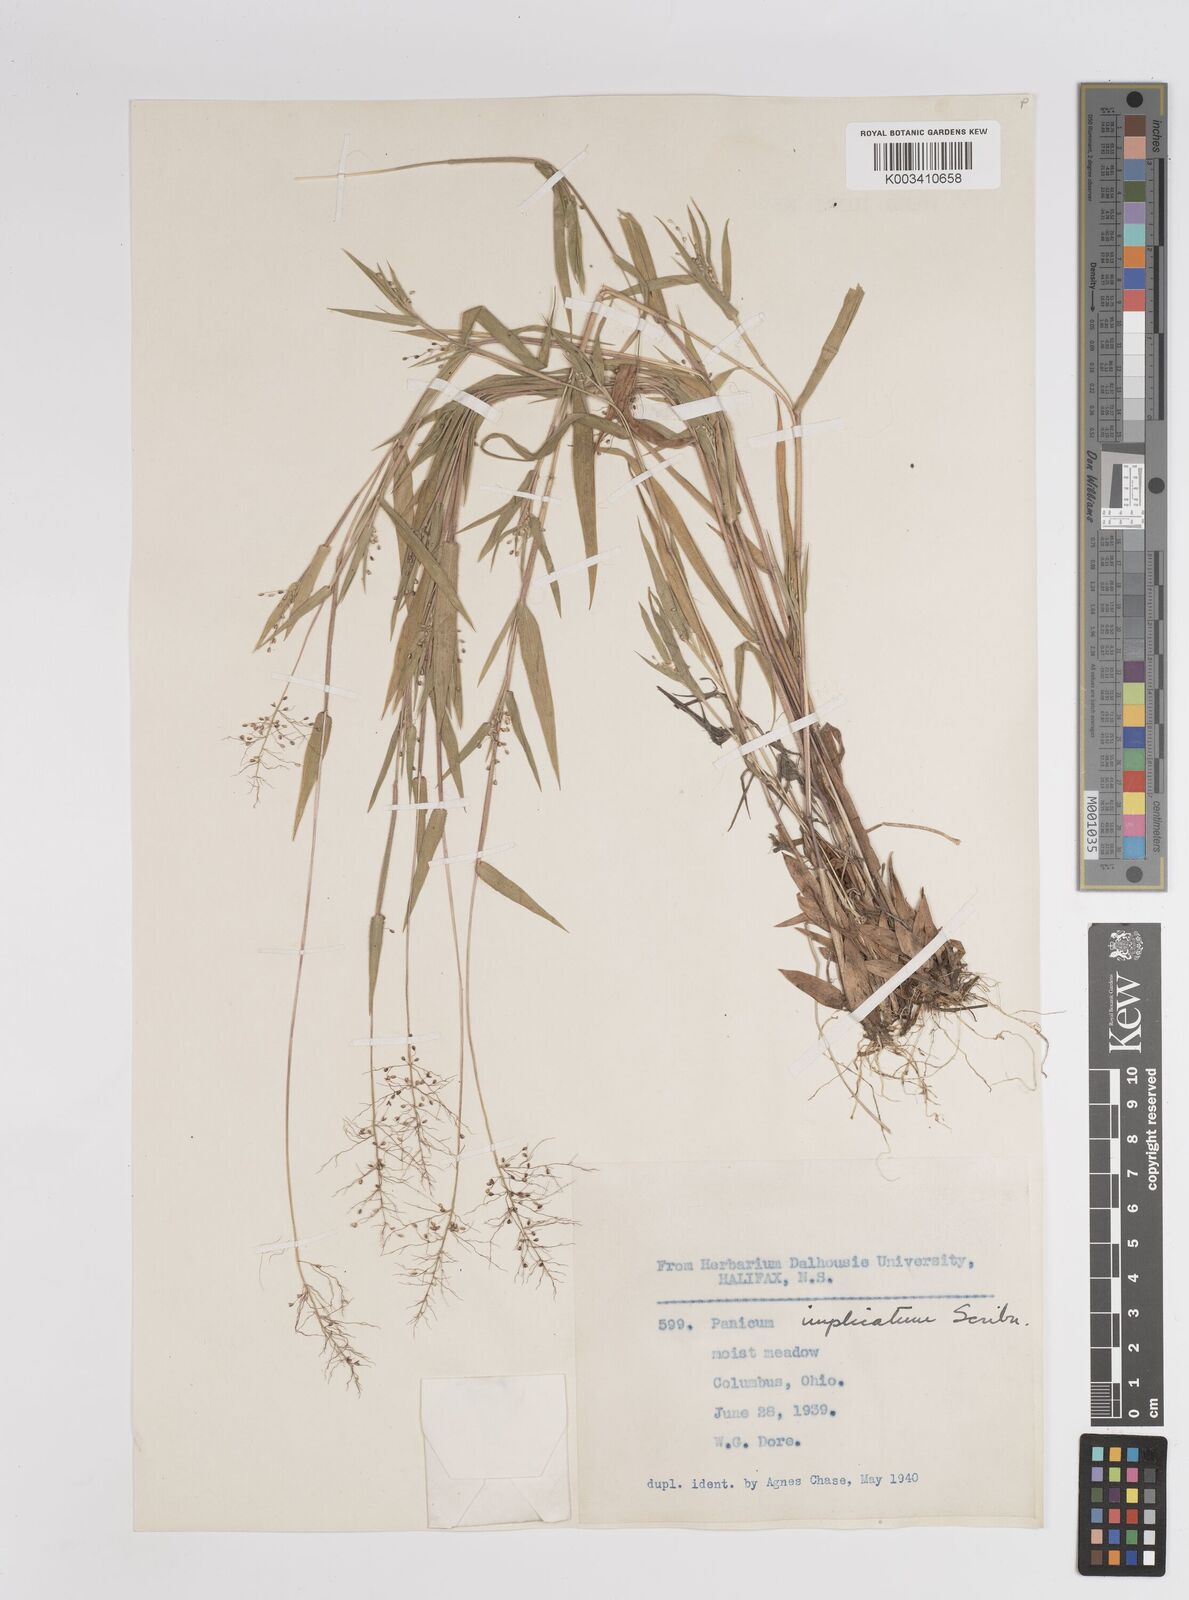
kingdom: Plantae
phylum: Tracheophyta
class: Liliopsida
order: Poales
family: Poaceae
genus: Dichanthelium
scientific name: Dichanthelium implicatum
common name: Slender-stemmed panicgrass
